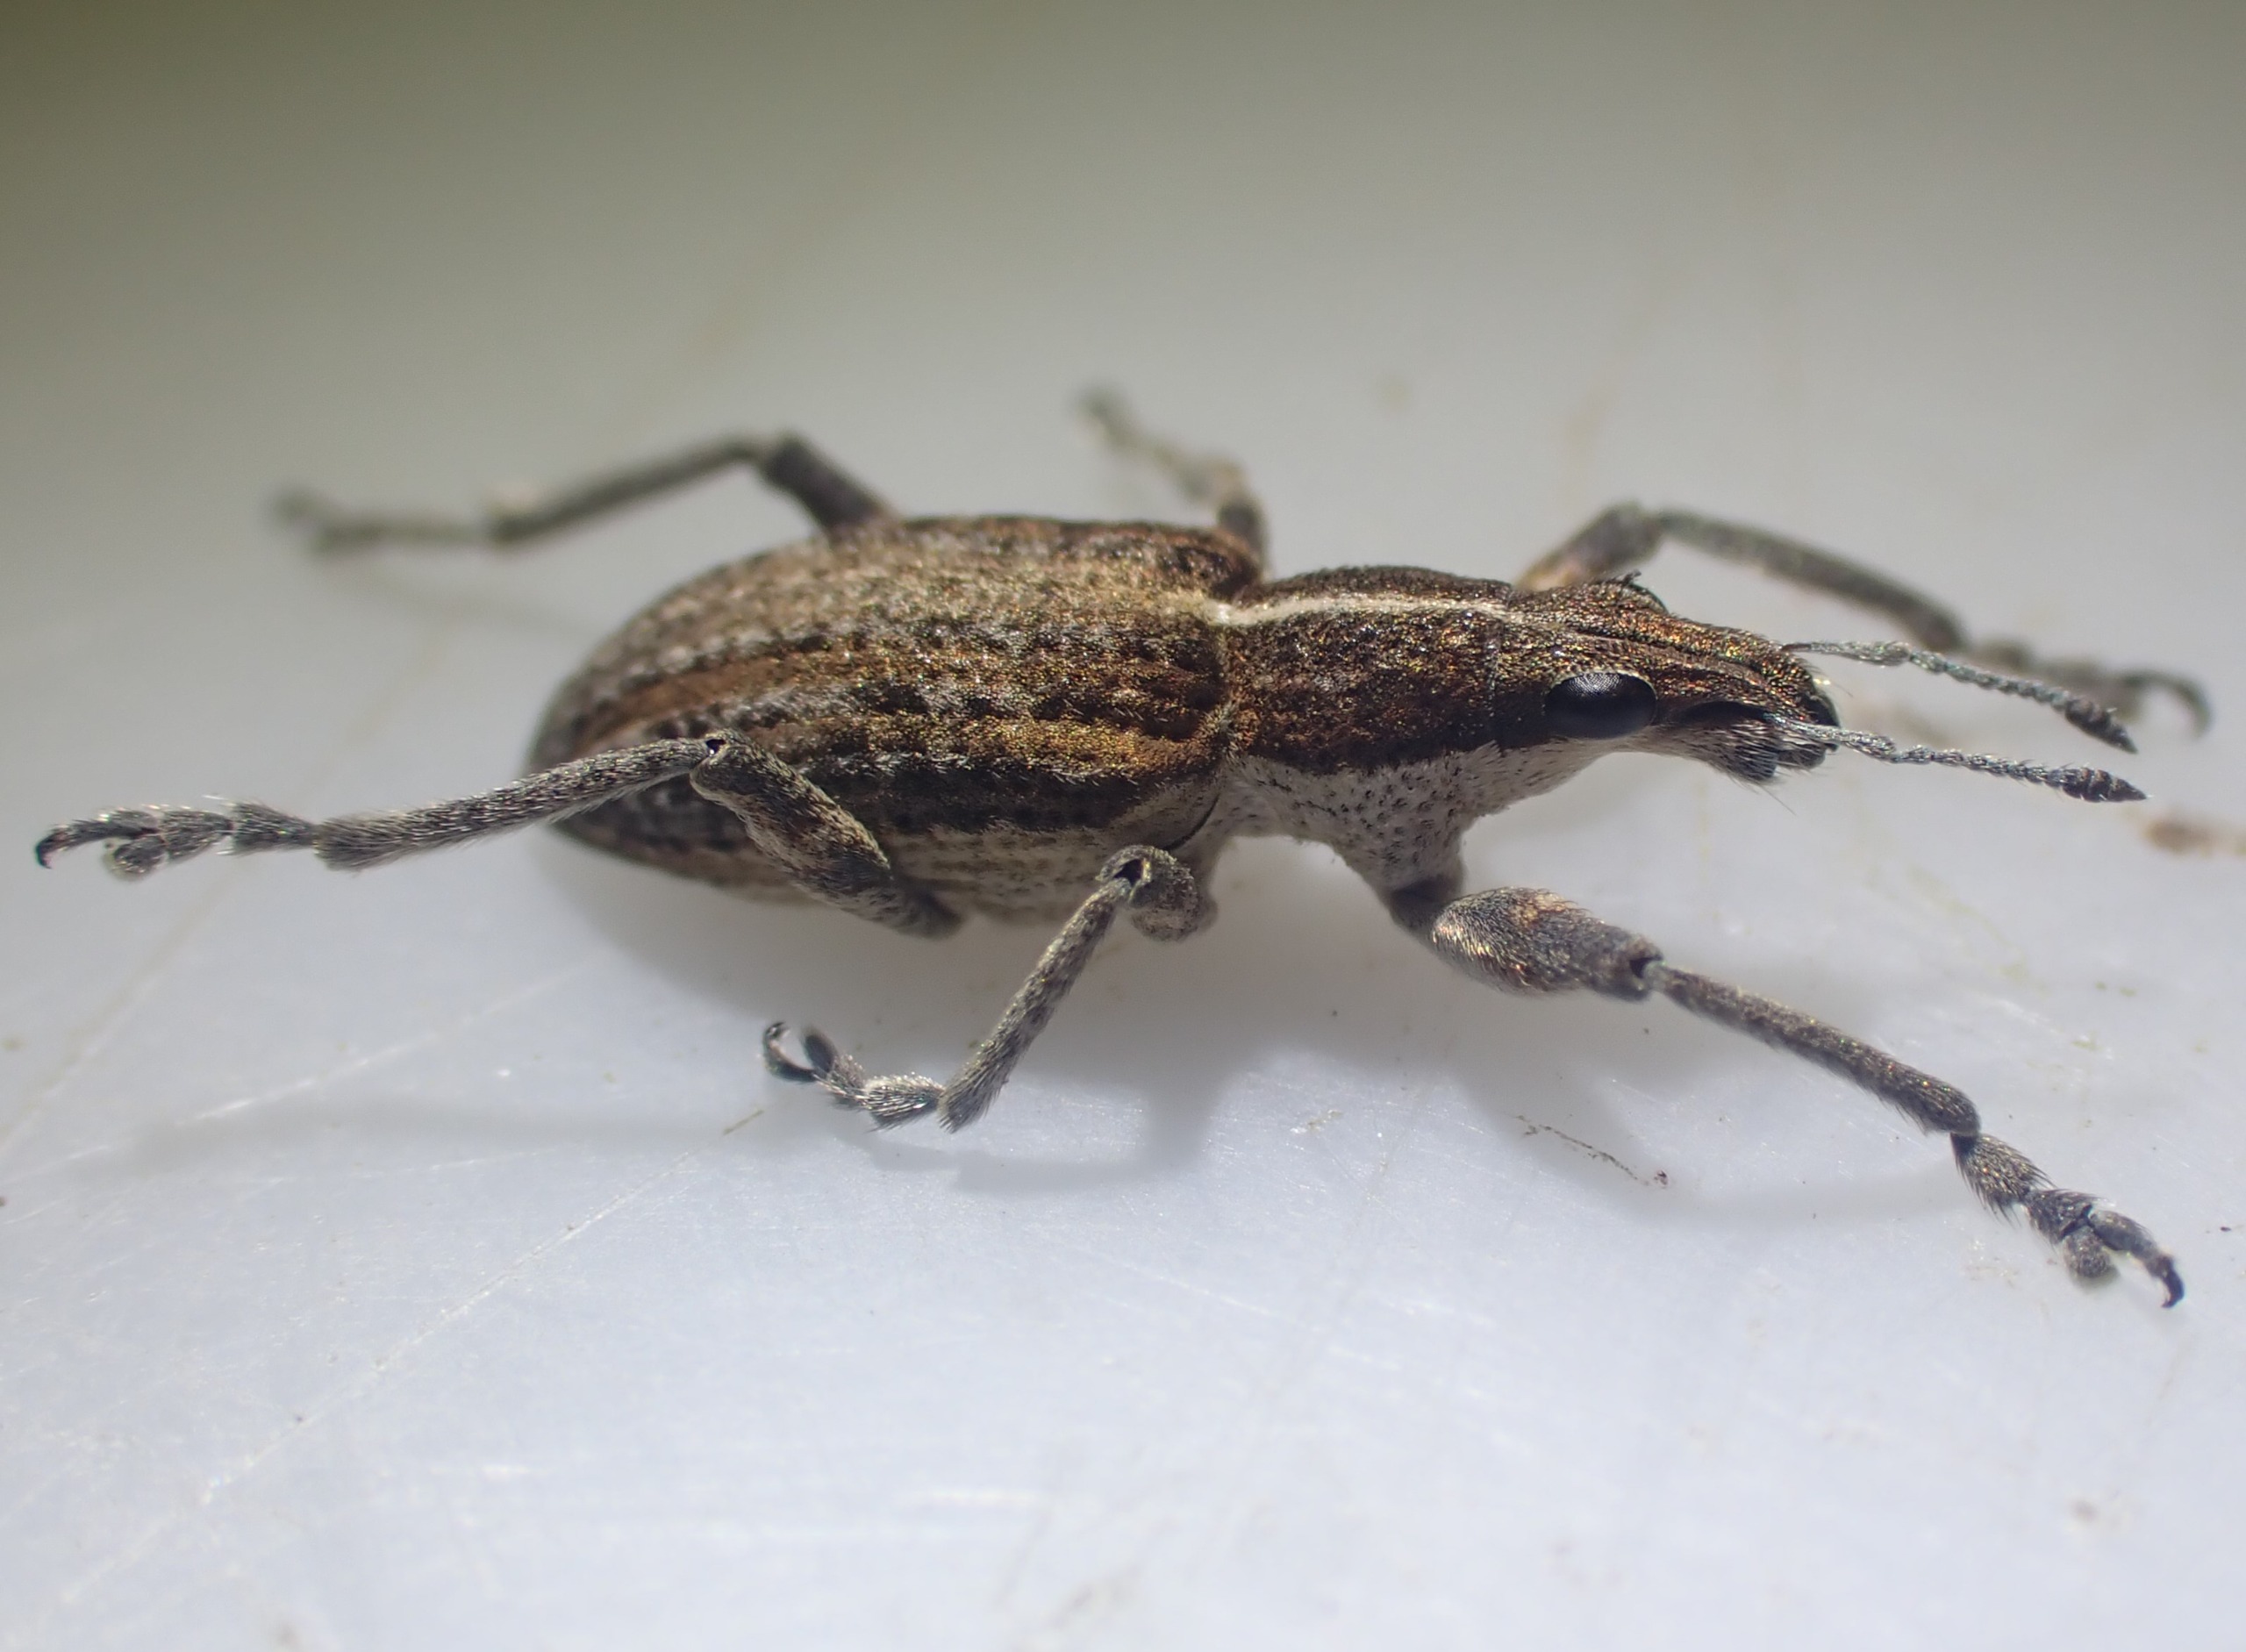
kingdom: Animalia
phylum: Arthropoda
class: Insecta
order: Coleoptera
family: Curculionidae
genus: Charagmus
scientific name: Charagmus gressorius
